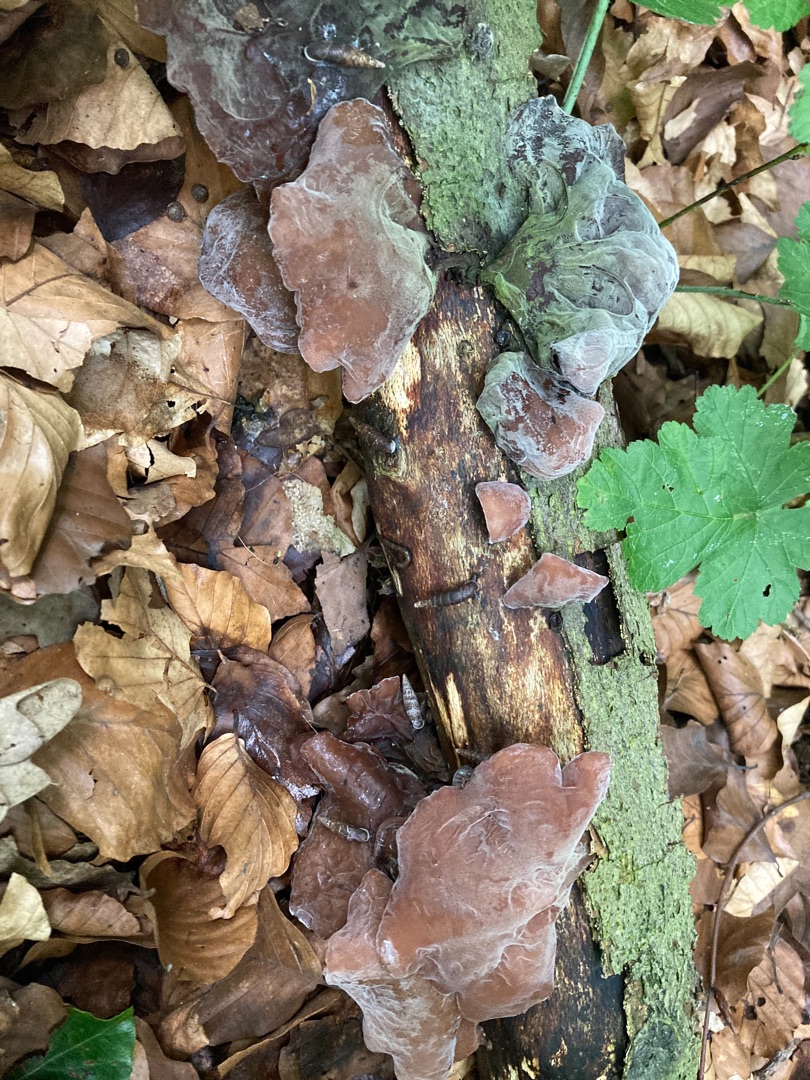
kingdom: Fungi
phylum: Basidiomycota
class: Agaricomycetes
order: Auriculariales
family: Auriculariaceae
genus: Auricularia
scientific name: Auricularia auricula-judae
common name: Almindelig judasøre
